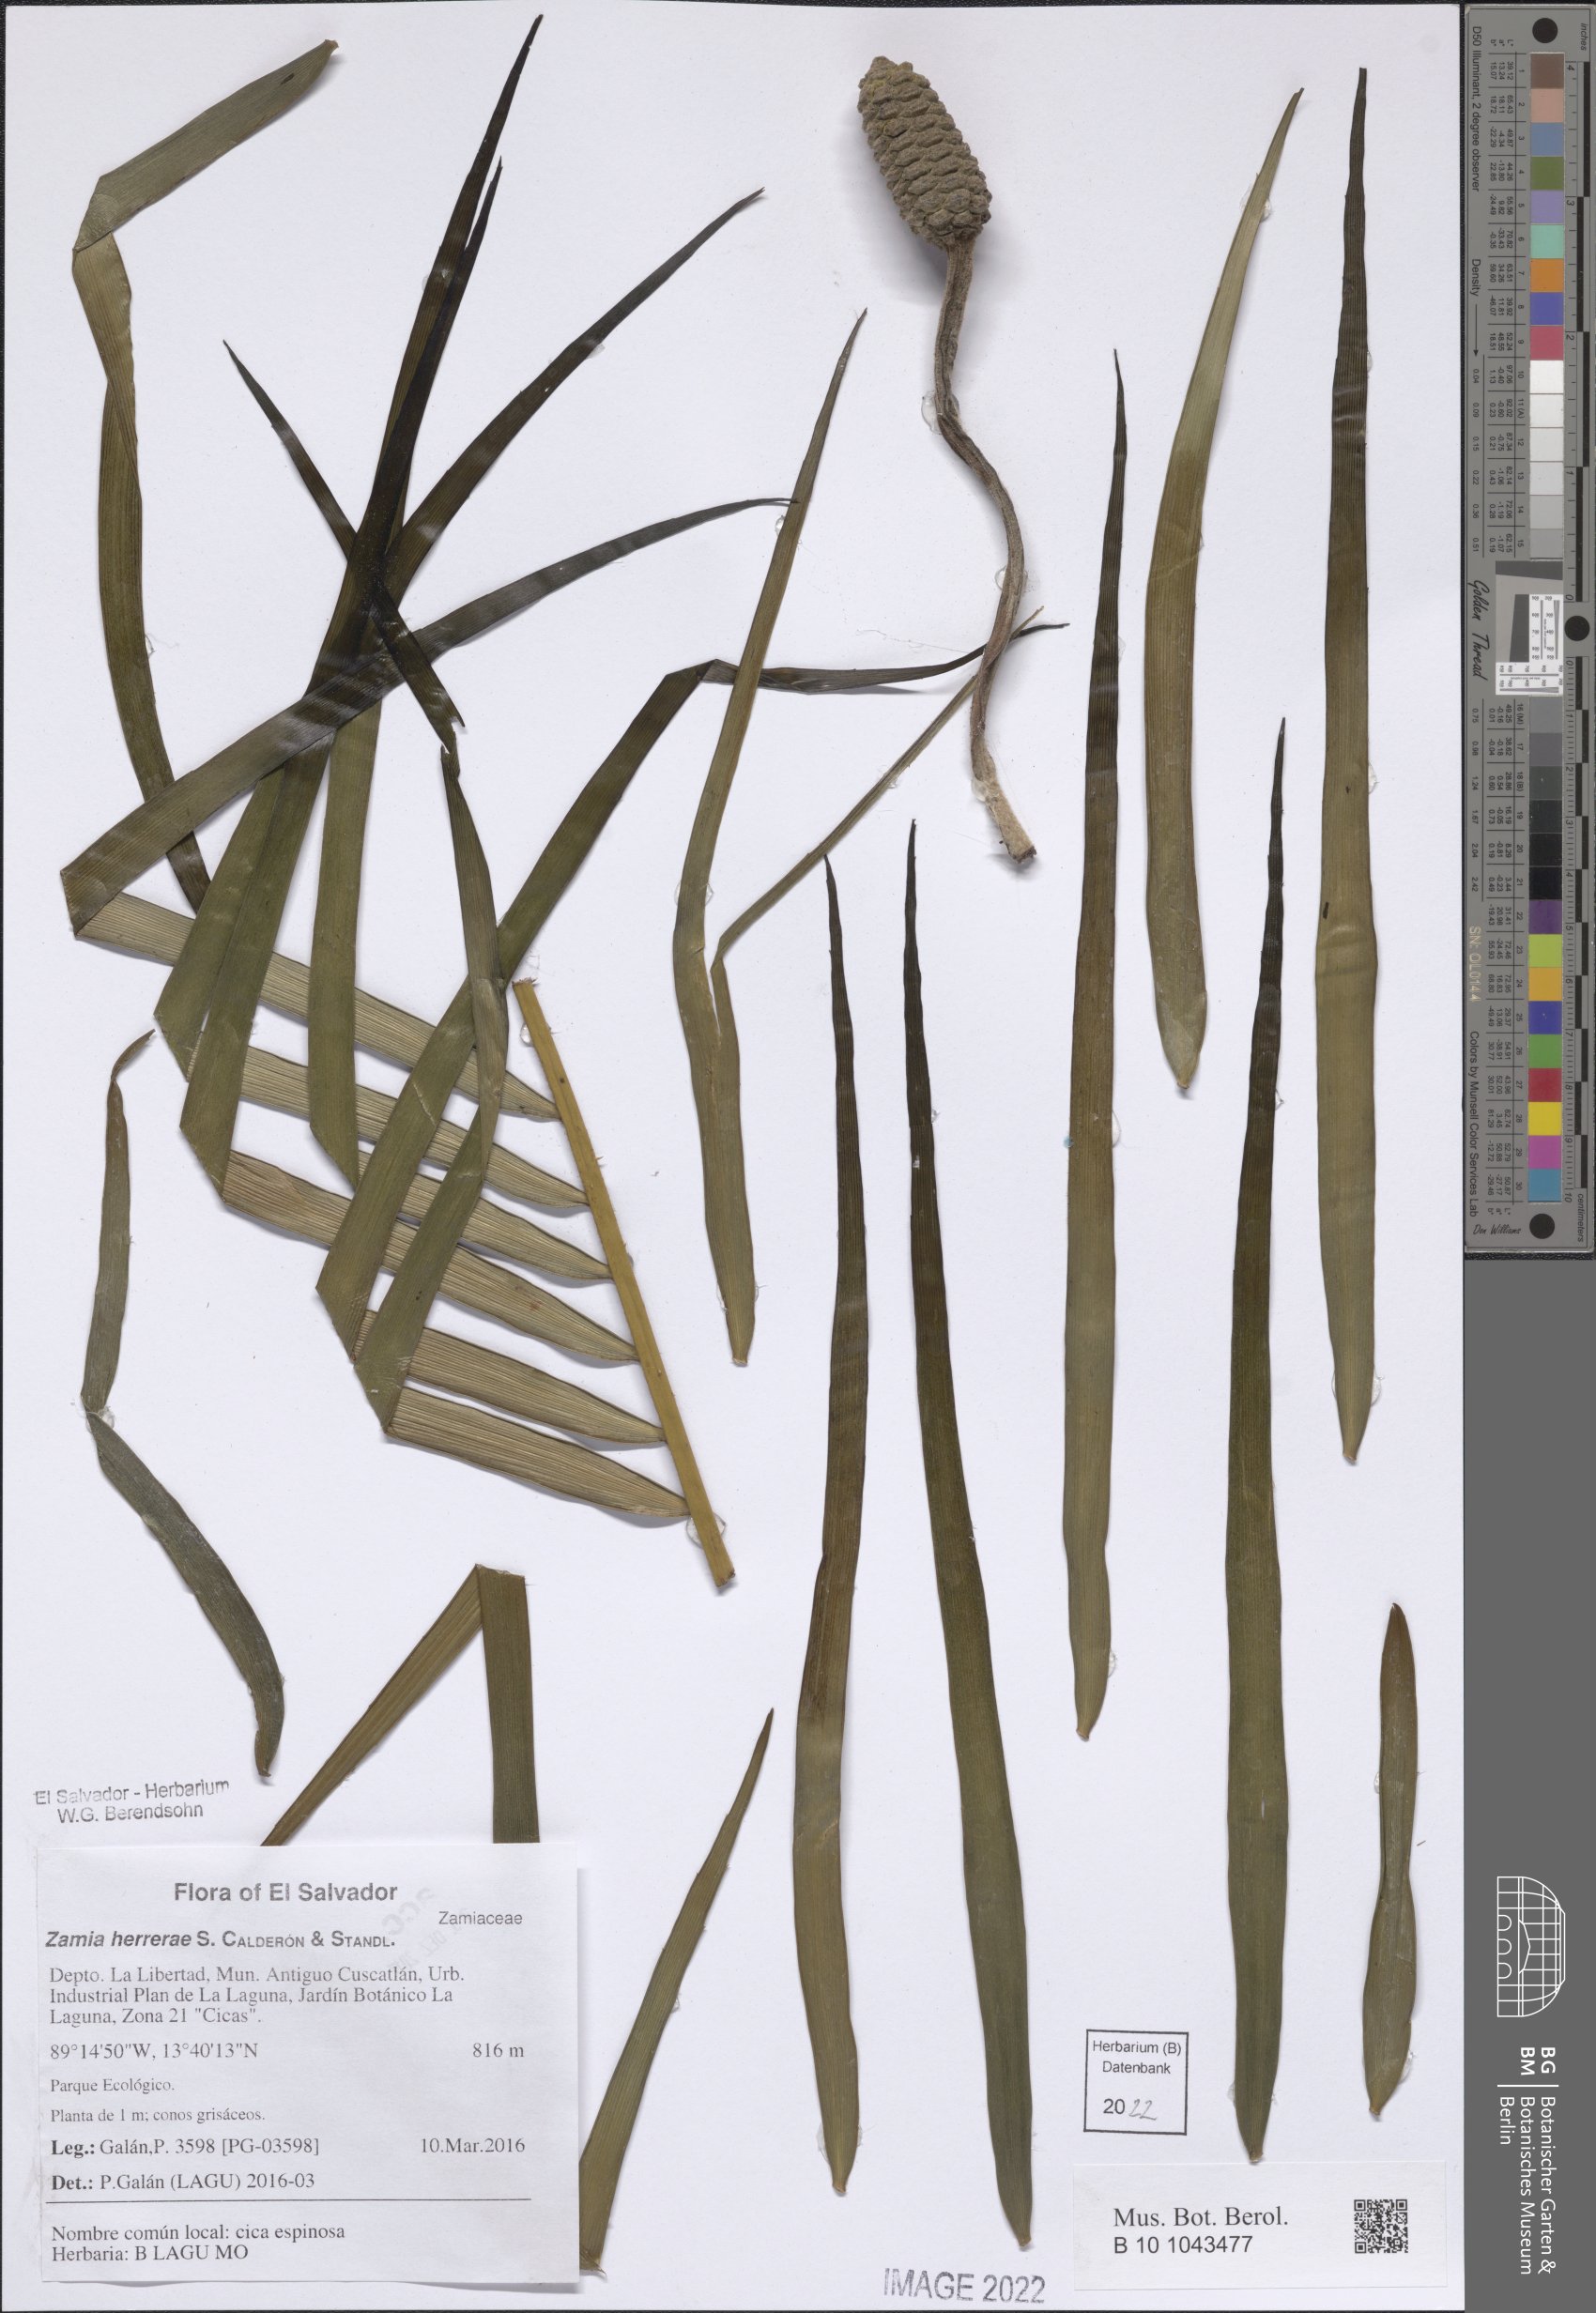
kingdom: Plantae
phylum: Tracheophyta
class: Cycadopsida
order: Cycadales
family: Zamiaceae
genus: Zamia
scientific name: Zamia herrerae
